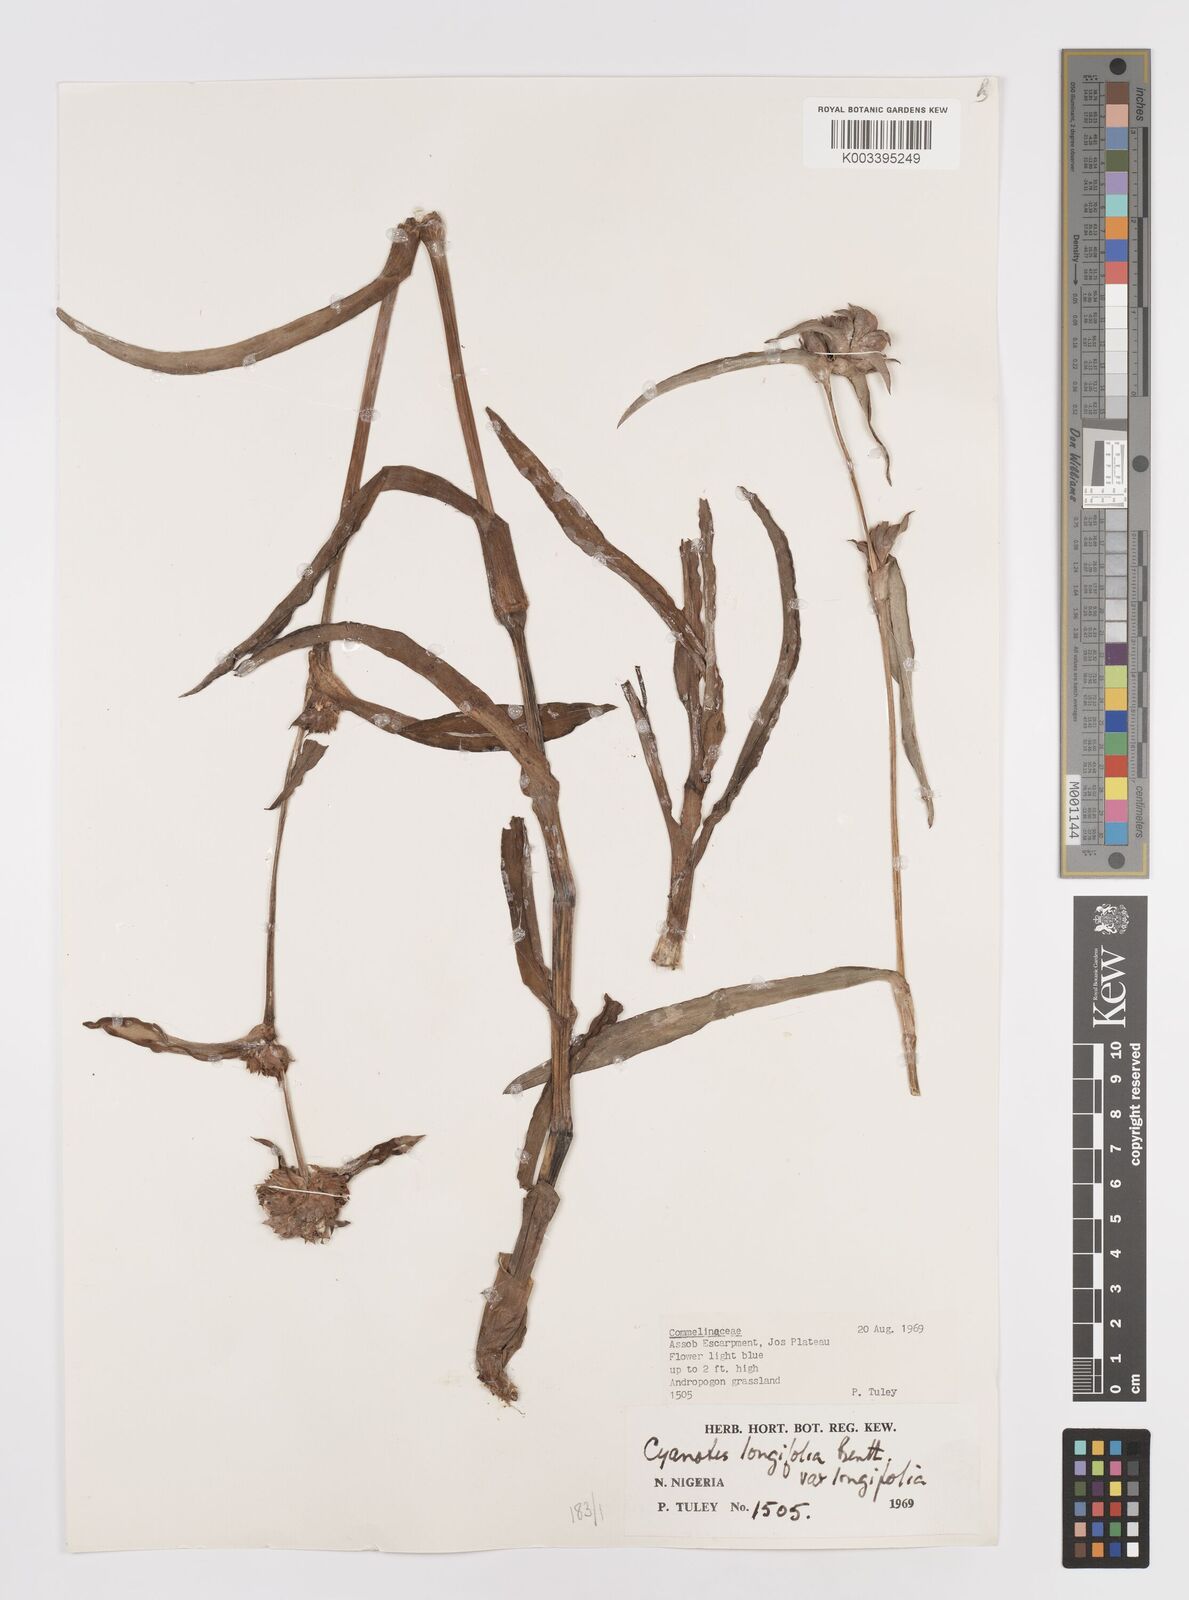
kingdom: Plantae
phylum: Tracheophyta
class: Liliopsida
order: Commelinales
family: Commelinaceae
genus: Cyanotis
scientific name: Cyanotis
